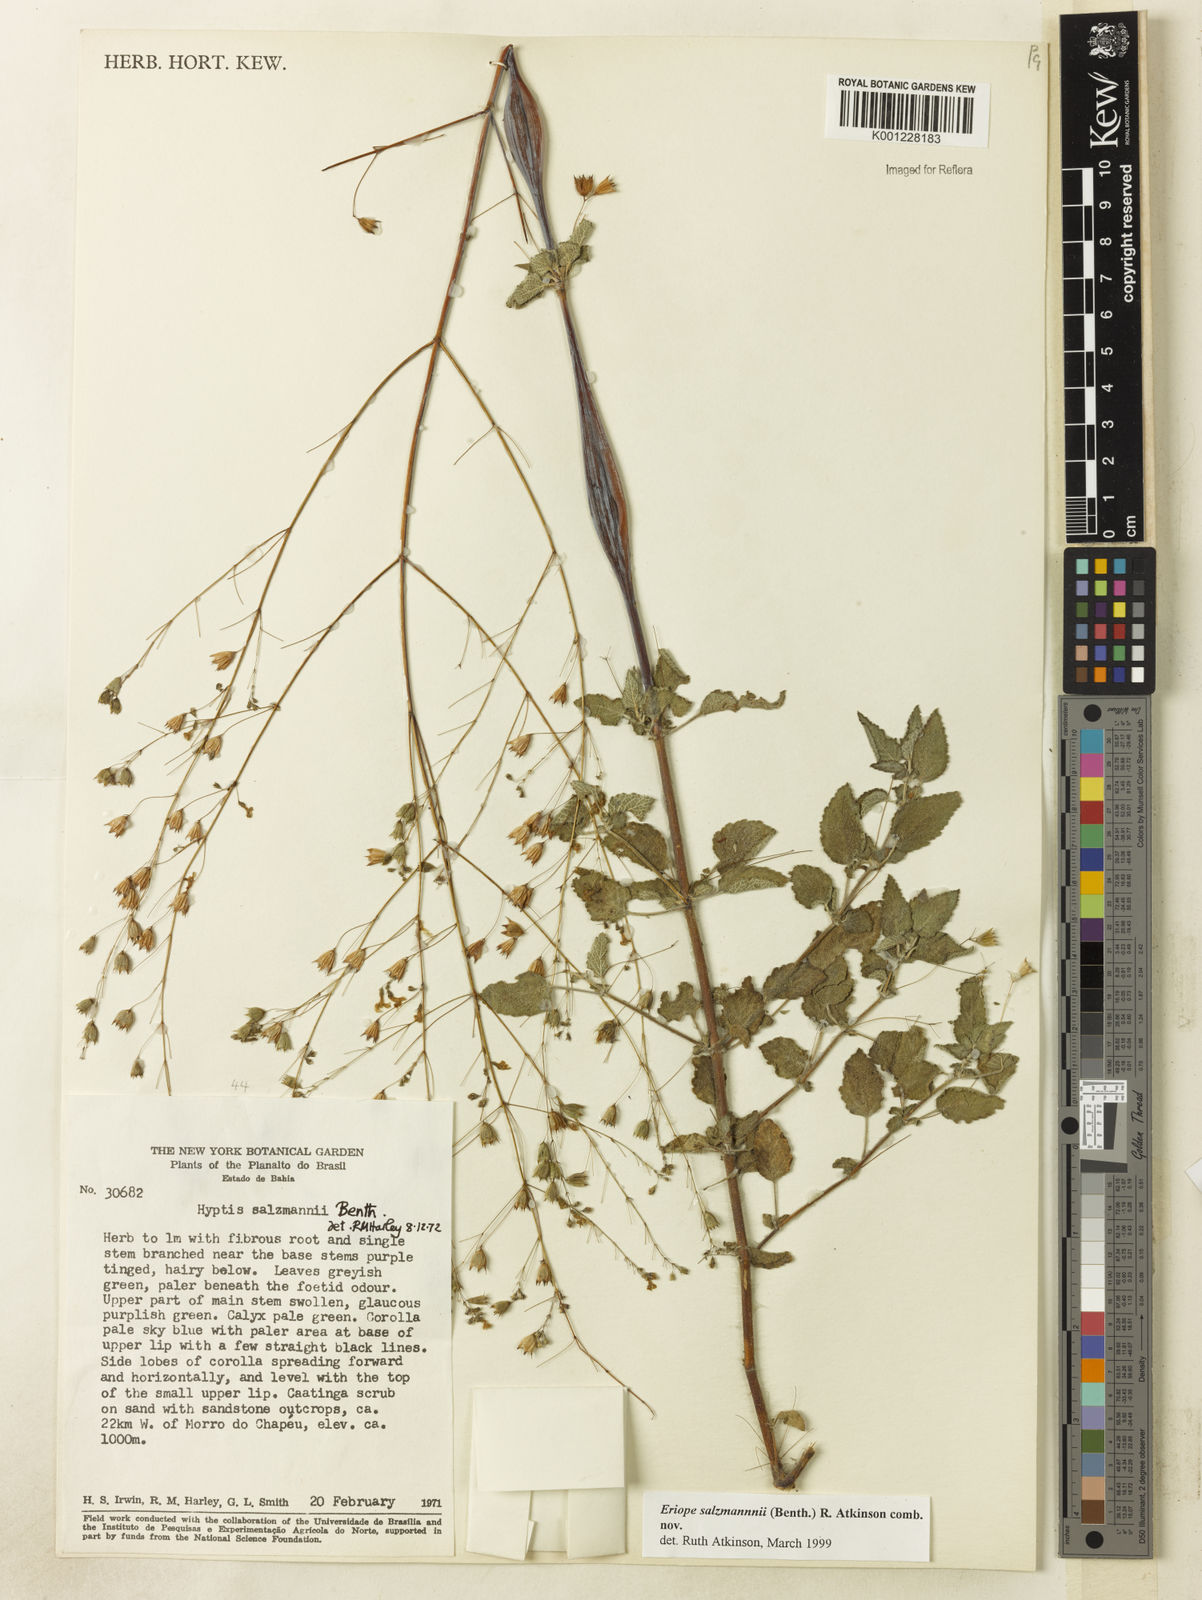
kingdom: Plantae
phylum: Tracheophyta
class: Magnoliopsida
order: Lamiales
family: Lamiaceae
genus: Hypenia
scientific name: Hypenia salzmannii
